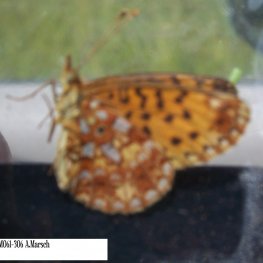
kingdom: Animalia
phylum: Arthropoda
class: Insecta
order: Lepidoptera
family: Nymphalidae
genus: Boloria
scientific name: Boloria selene
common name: Silver-bordered Fritillary
